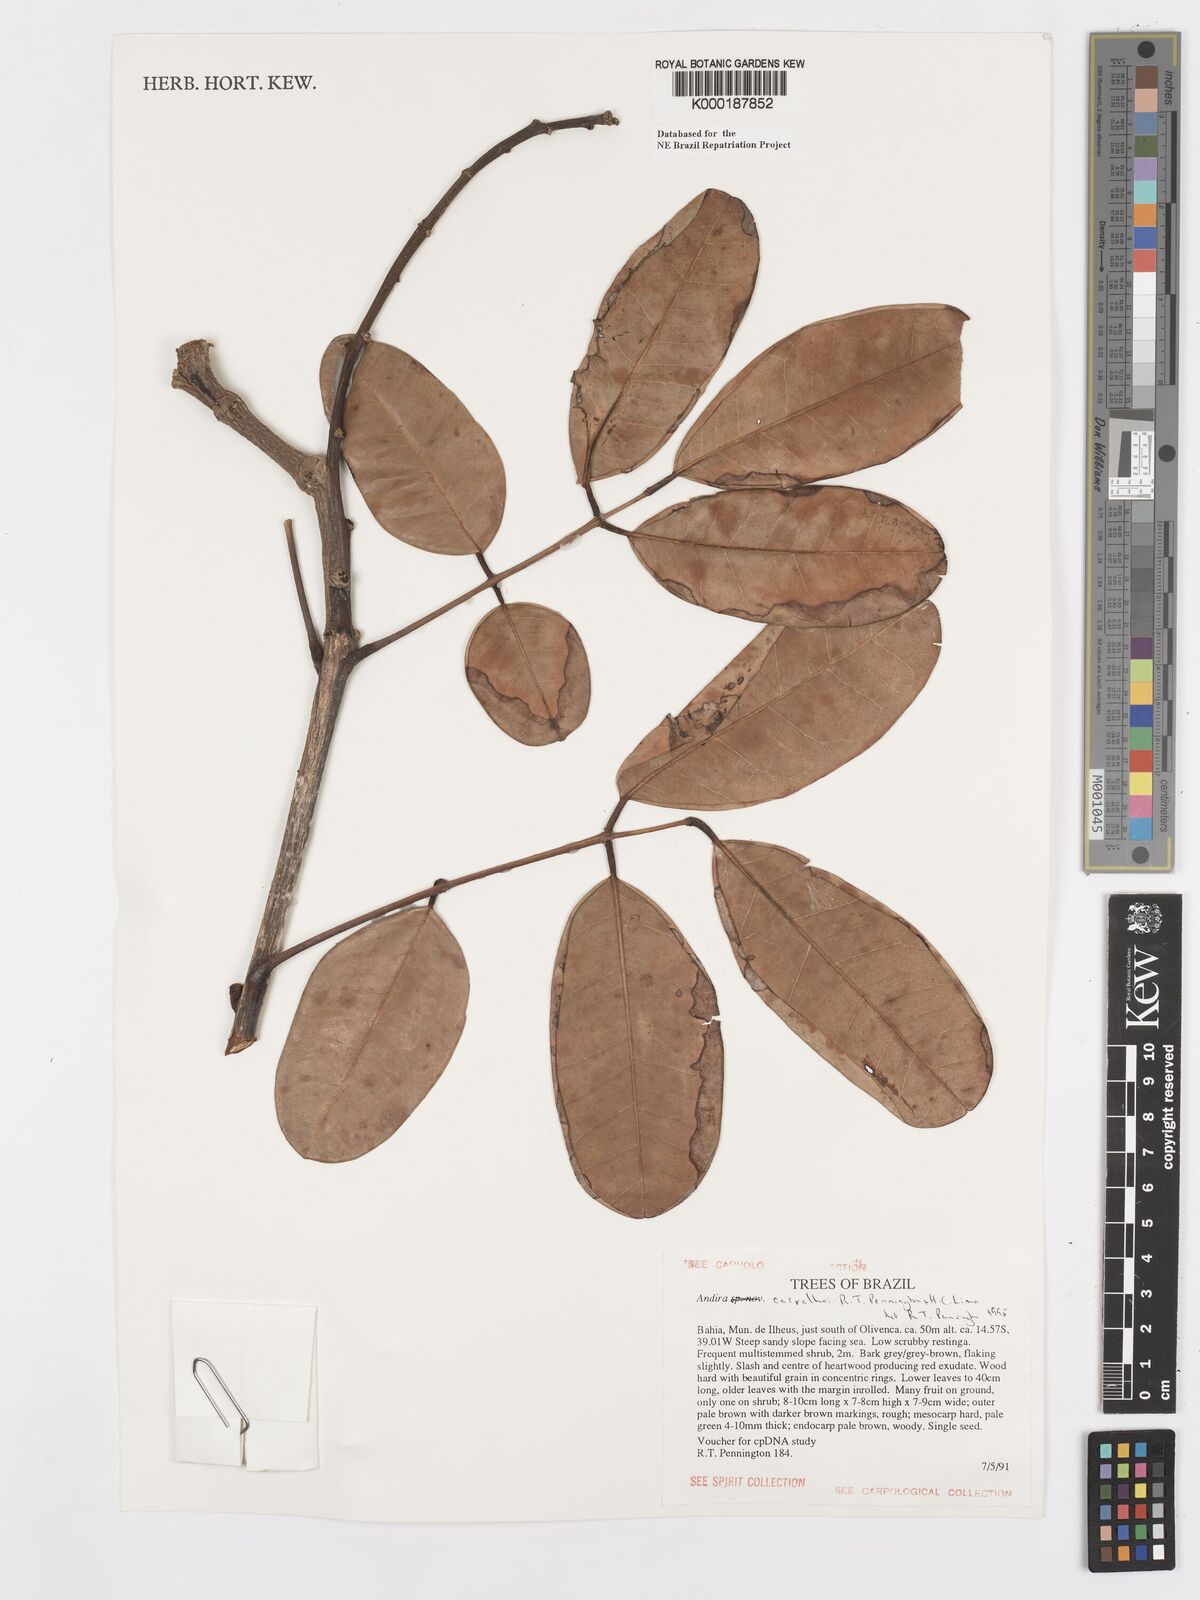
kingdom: Plantae
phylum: Tracheophyta
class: Magnoliopsida
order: Fabales
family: Fabaceae
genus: Andira
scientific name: Andira carvalhoi
